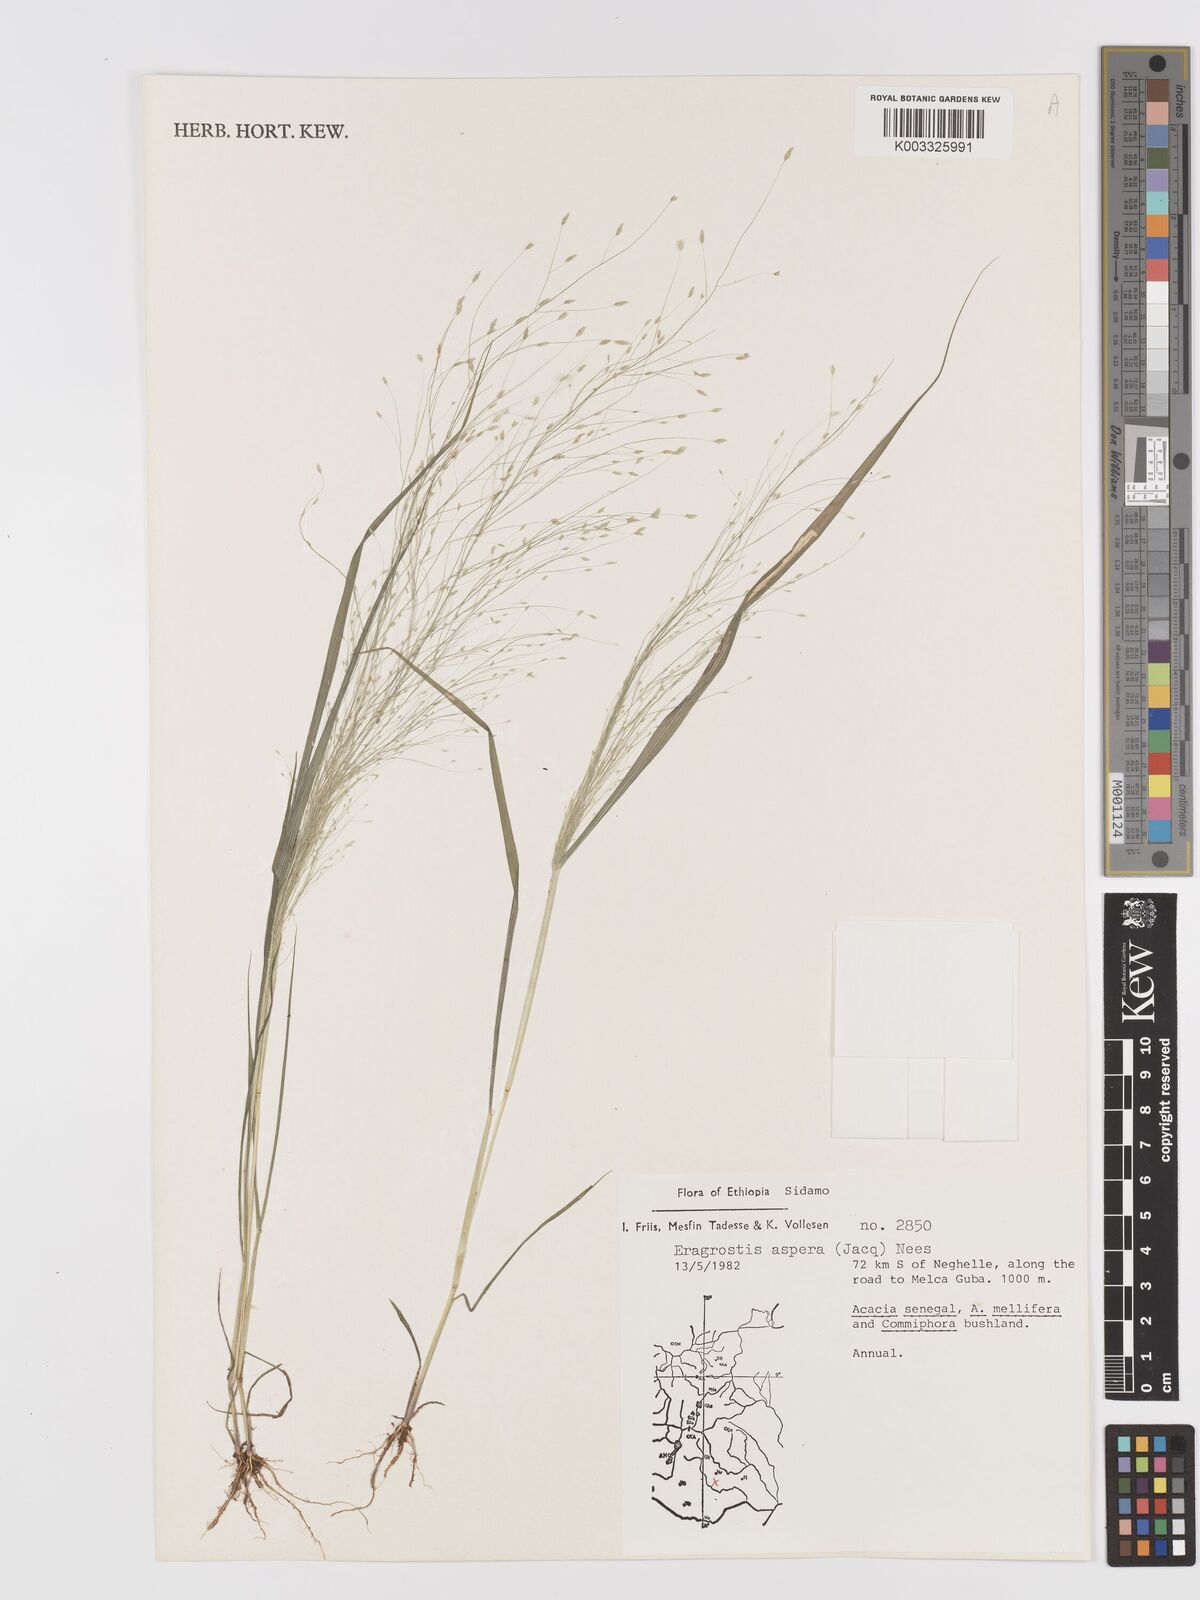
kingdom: Plantae
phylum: Tracheophyta
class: Liliopsida
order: Poales
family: Poaceae
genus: Eragrostis
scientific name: Eragrostis aspera
